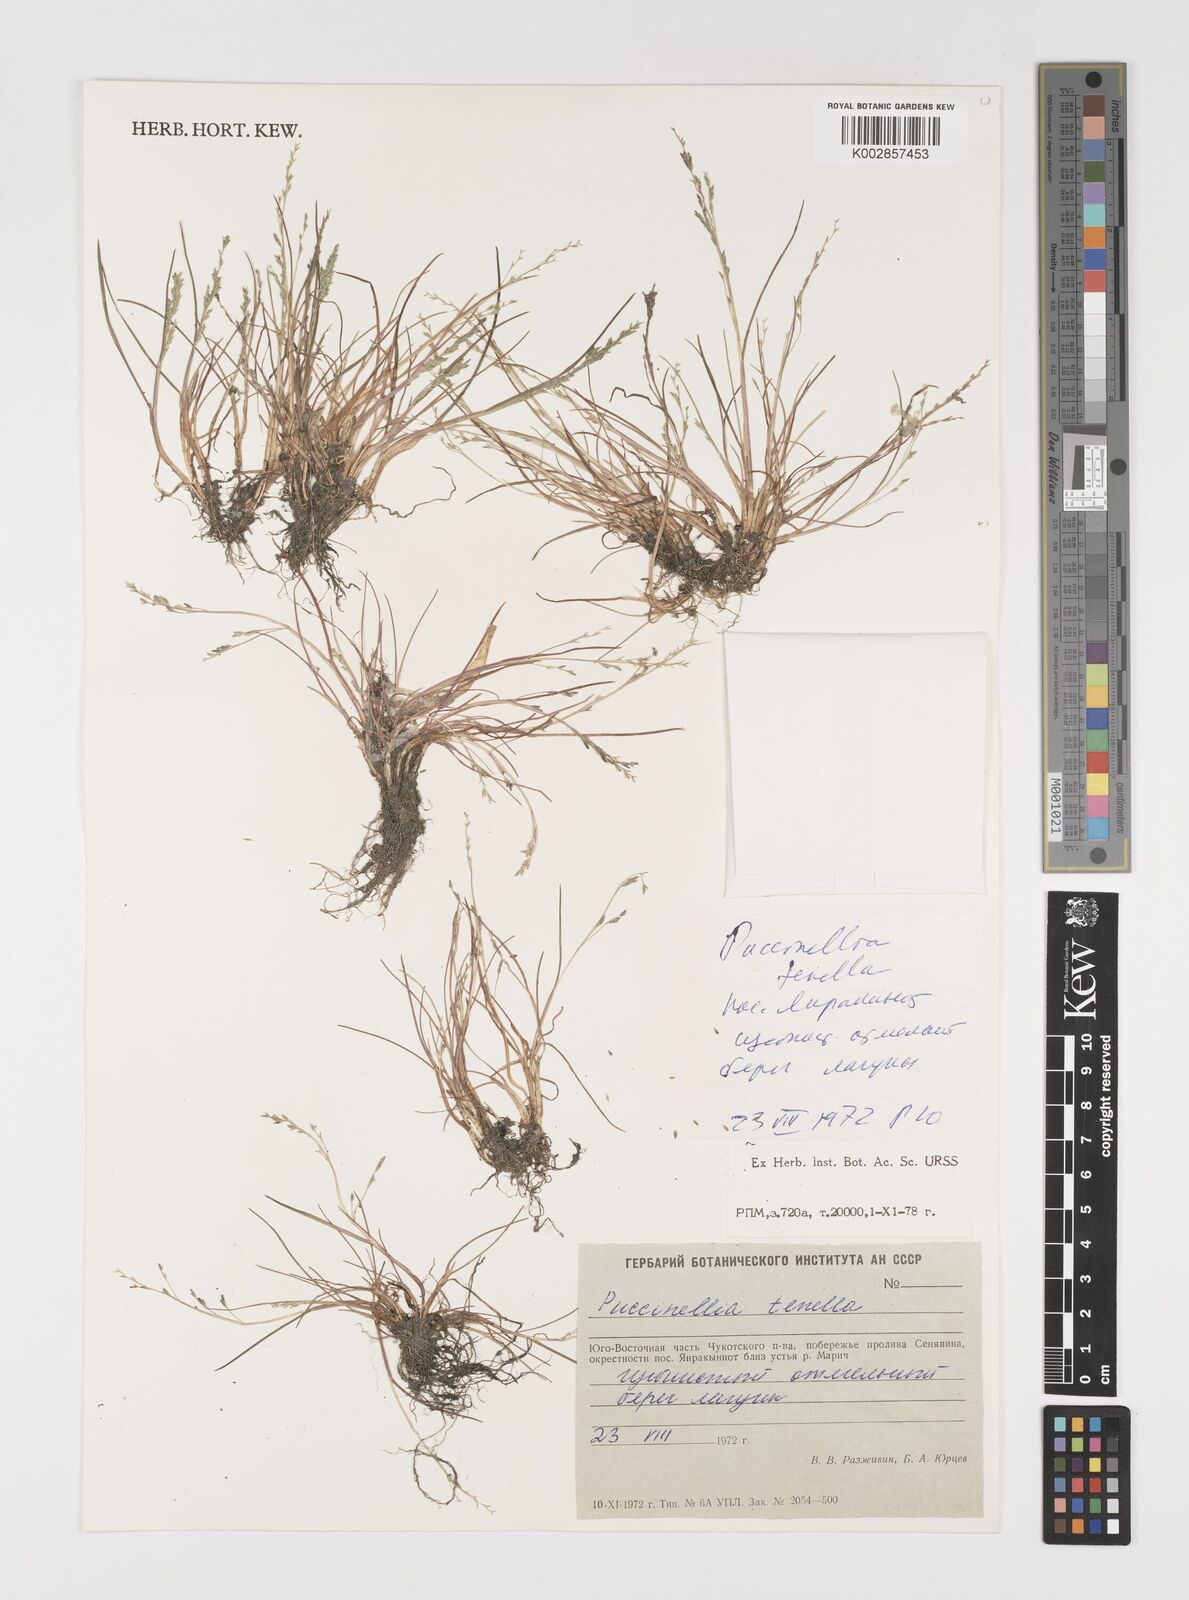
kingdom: Plantae
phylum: Tracheophyta
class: Liliopsida
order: Poales
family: Poaceae
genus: Puccinellia
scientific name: Puccinellia tenella
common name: Tundra alkaligrass
